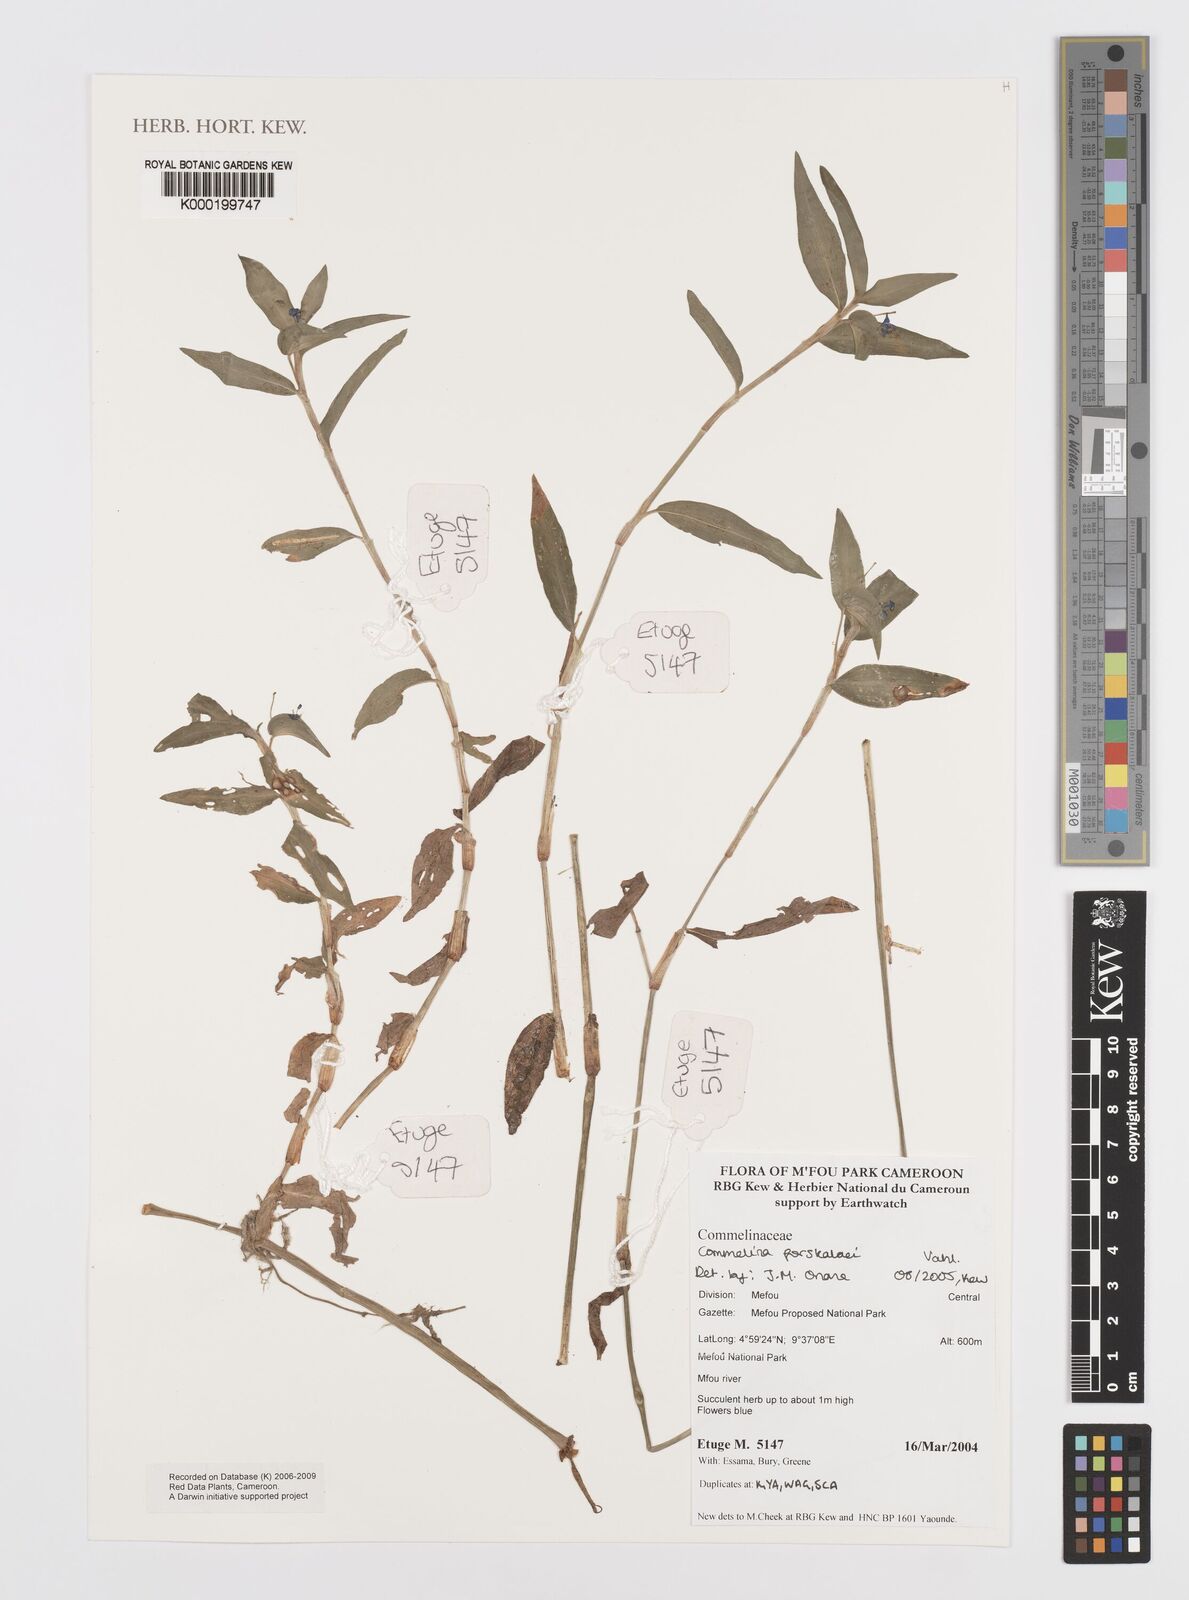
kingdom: Plantae
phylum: Tracheophyta
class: Liliopsida
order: Commelinales
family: Commelinaceae
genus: Commelina
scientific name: Commelina
